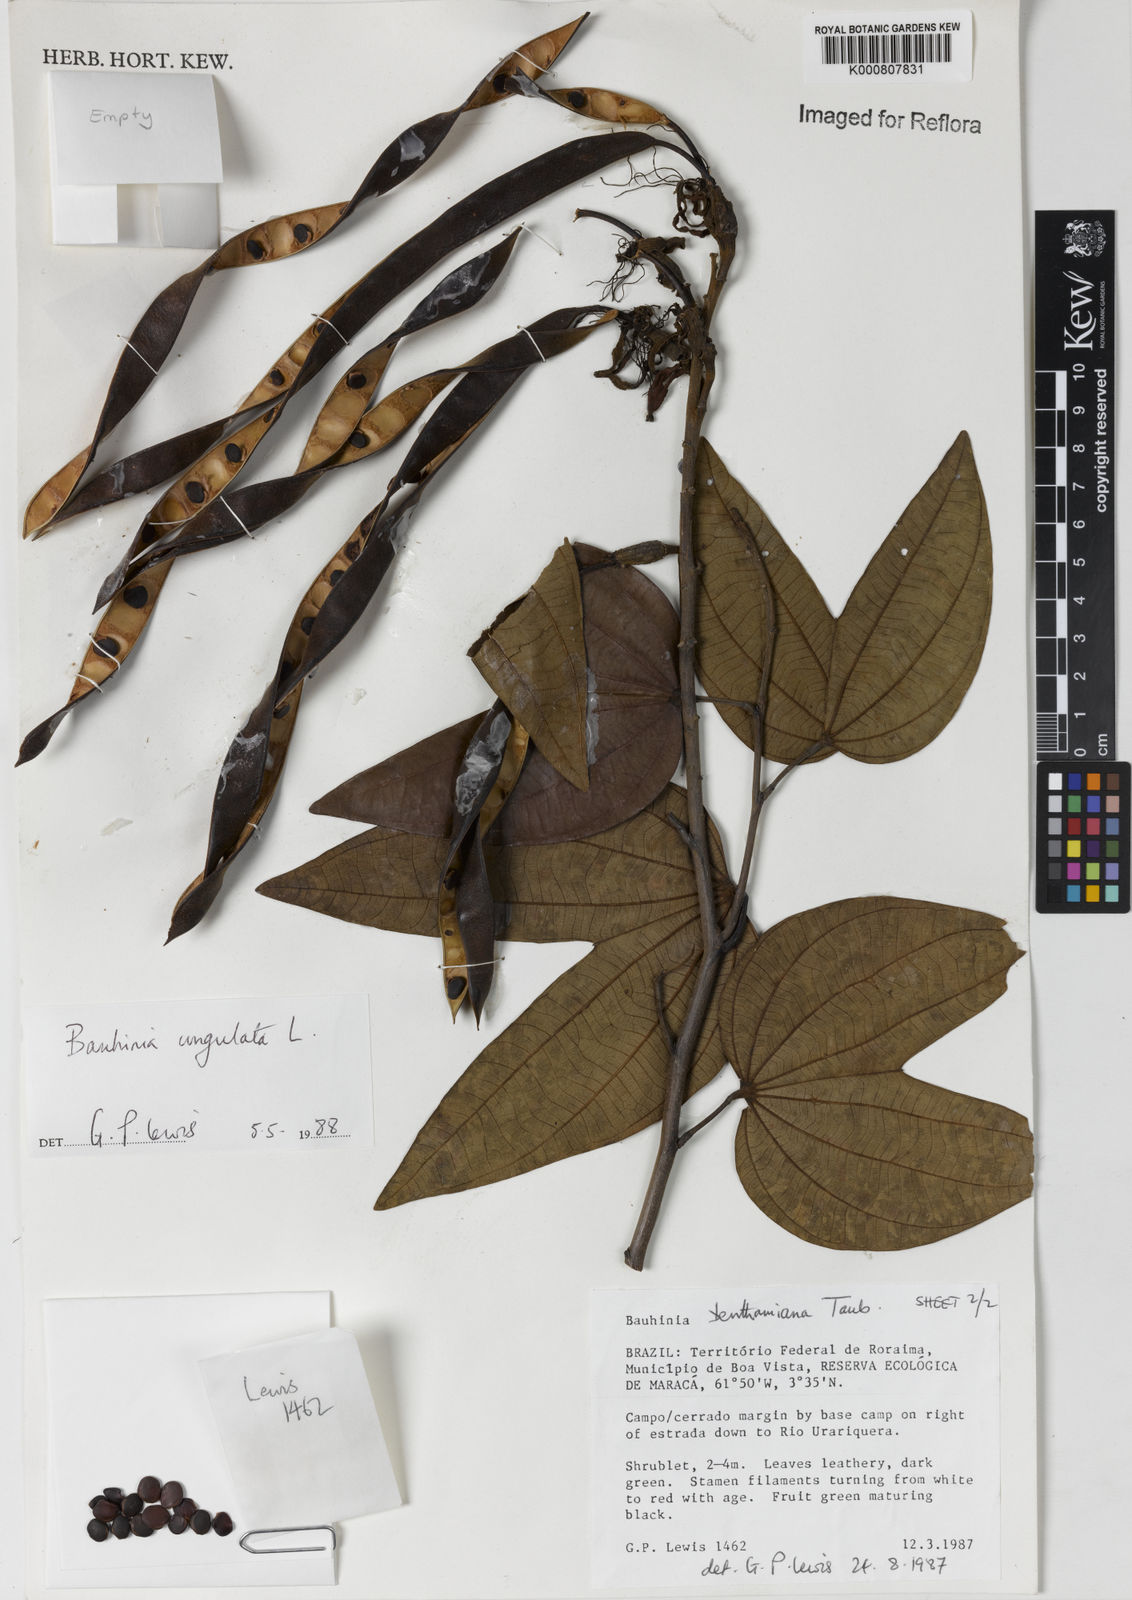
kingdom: Plantae
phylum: Tracheophyta
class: Magnoliopsida
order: Fabales
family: Fabaceae
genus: Bauhinia
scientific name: Bauhinia ungulata
